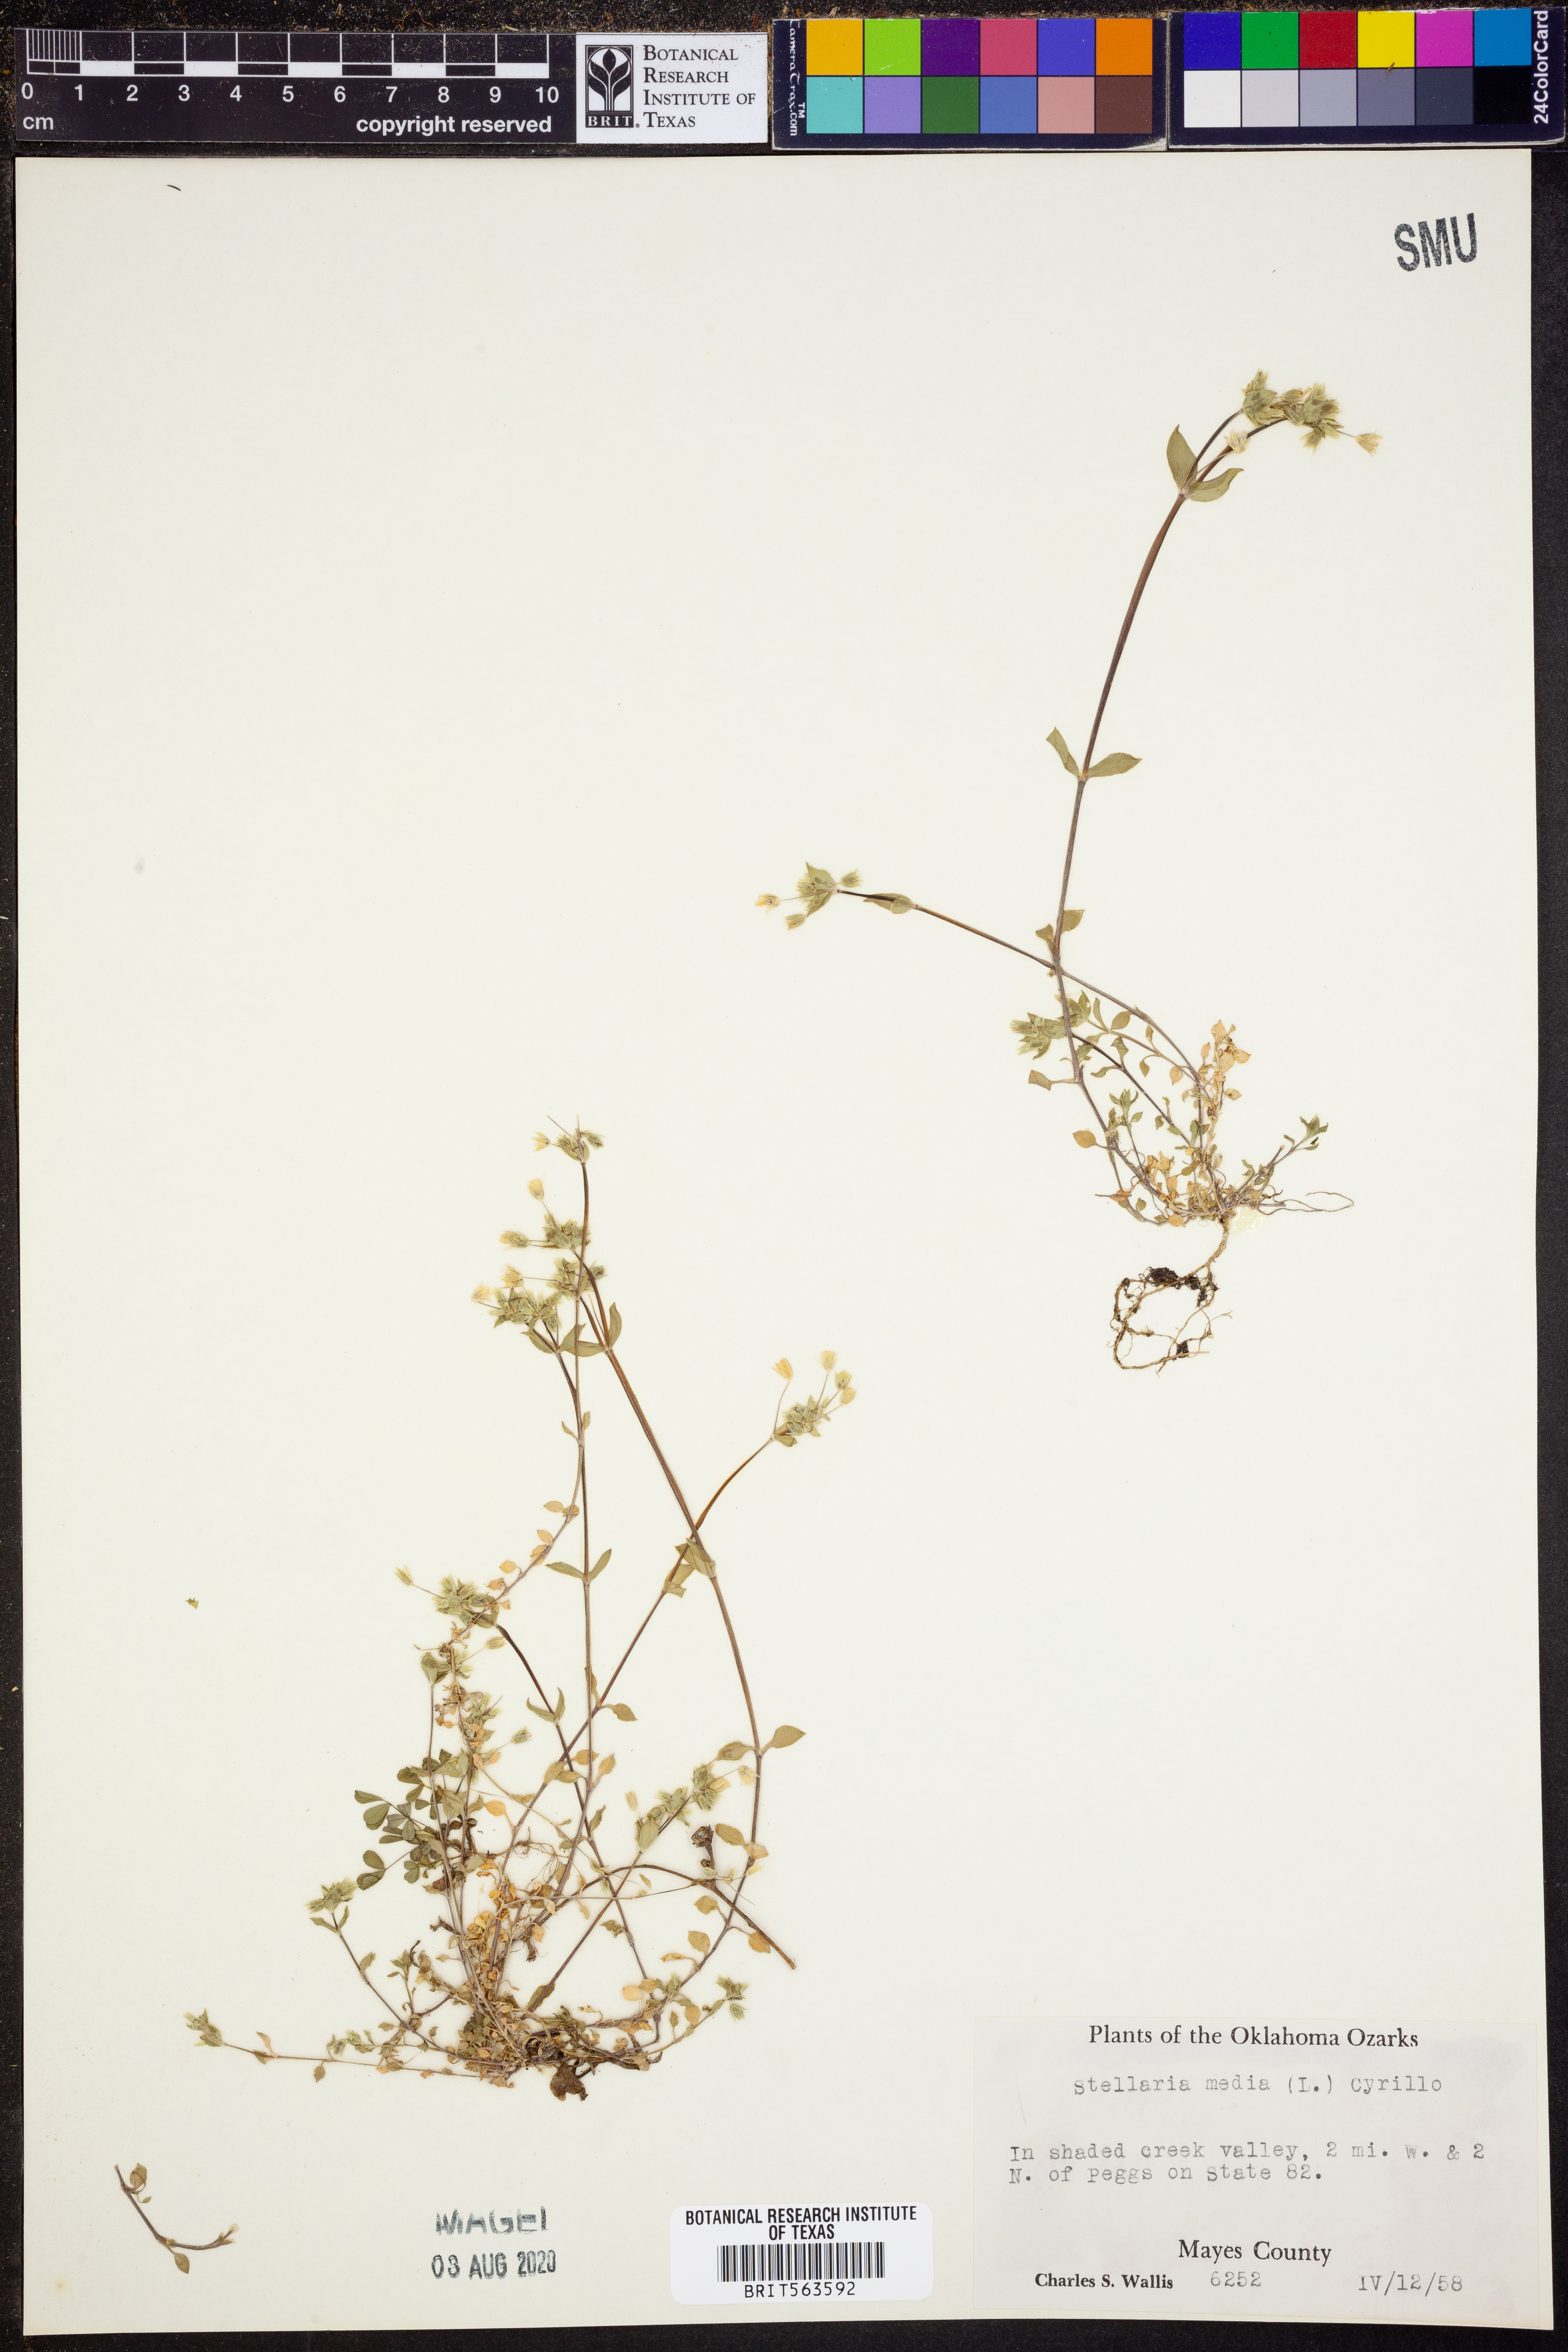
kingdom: Plantae
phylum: Tracheophyta
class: Magnoliopsida
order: Caryophyllales
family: Caryophyllaceae
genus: Stellaria
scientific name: Stellaria media
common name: Common chickweed
